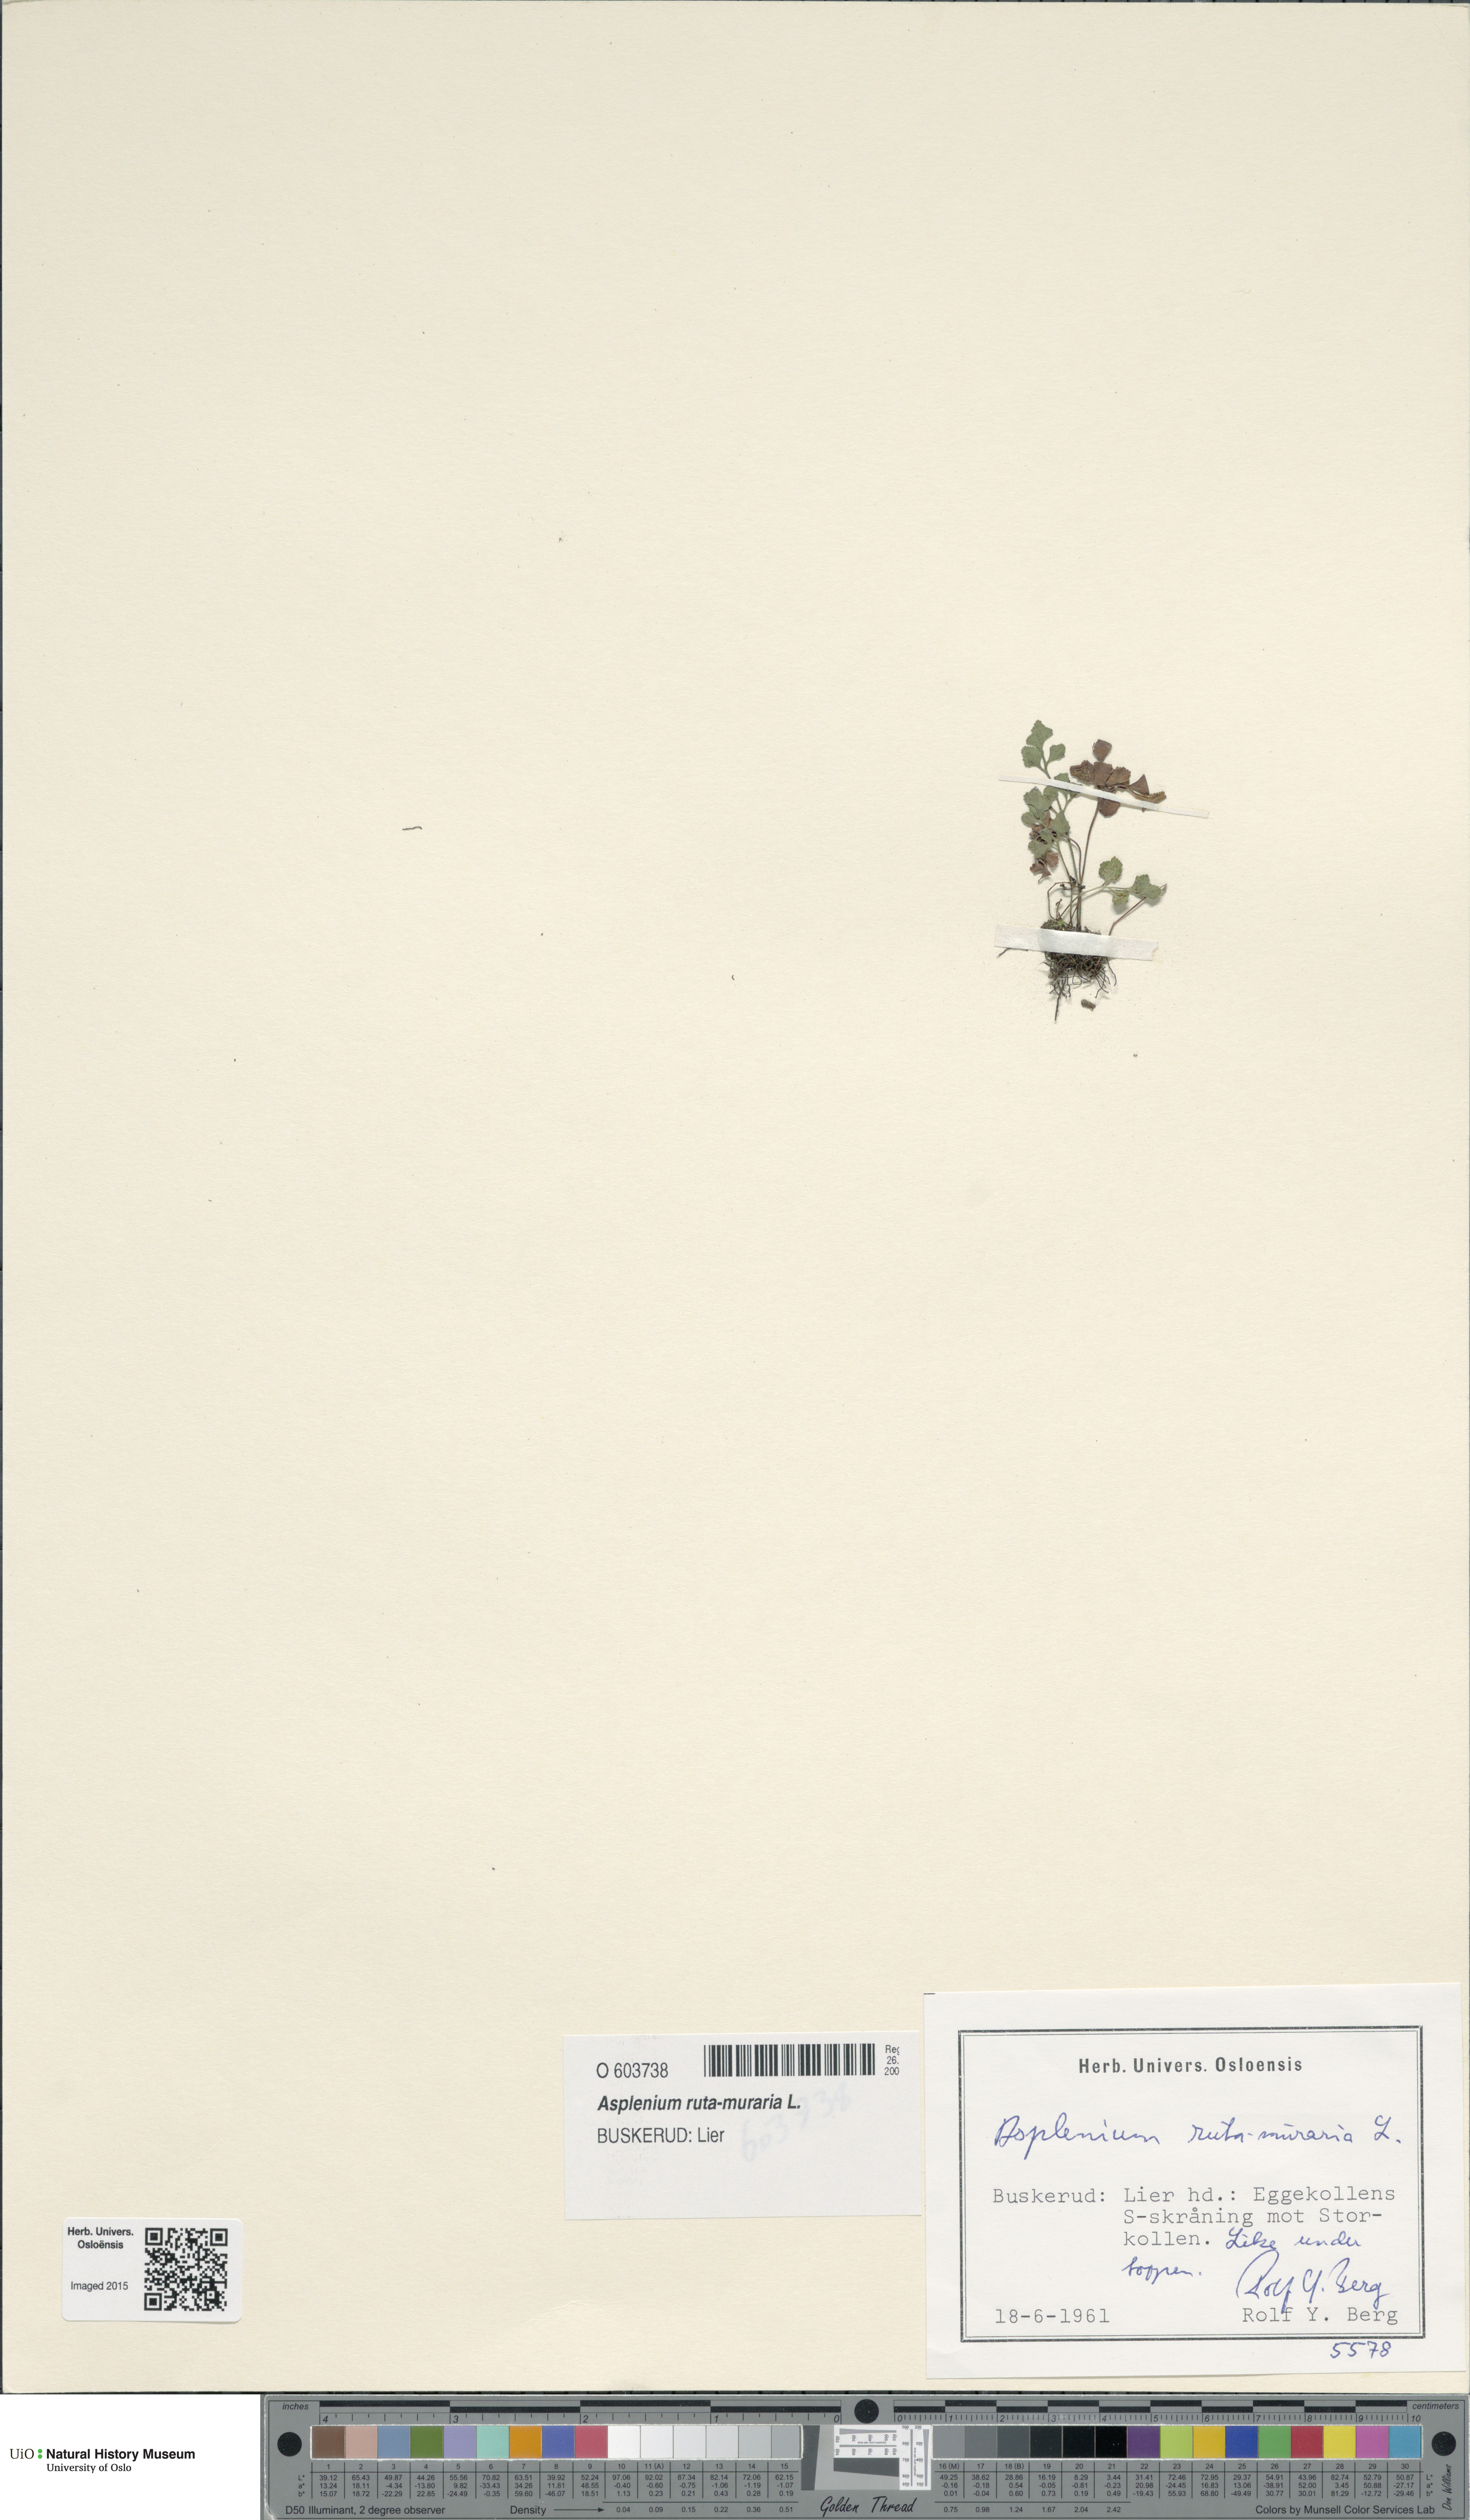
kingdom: Plantae
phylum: Tracheophyta
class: Polypodiopsida
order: Polypodiales
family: Aspleniaceae
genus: Asplenium
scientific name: Asplenium ruta-muraria
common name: Wall-rue
